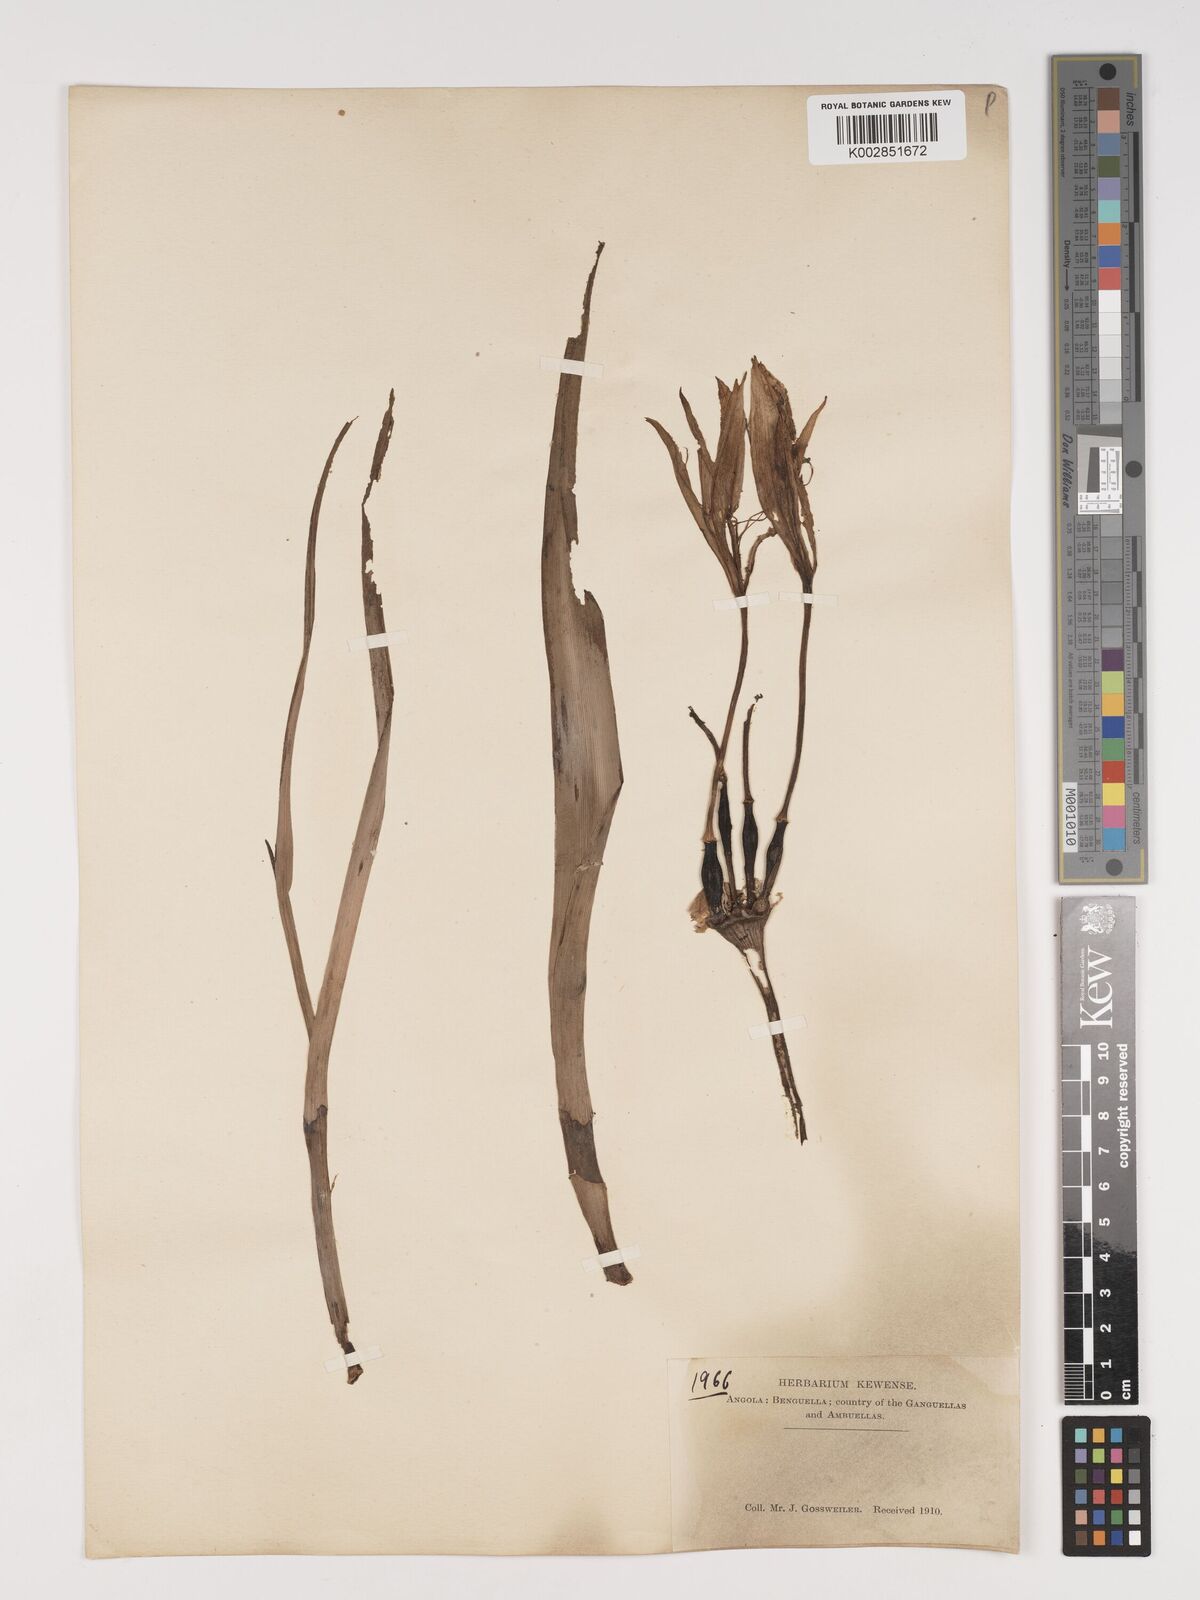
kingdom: Plantae
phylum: Tracheophyta
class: Liliopsida
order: Asparagales
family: Amaryllidaceae
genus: Crinum
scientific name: Crinum
